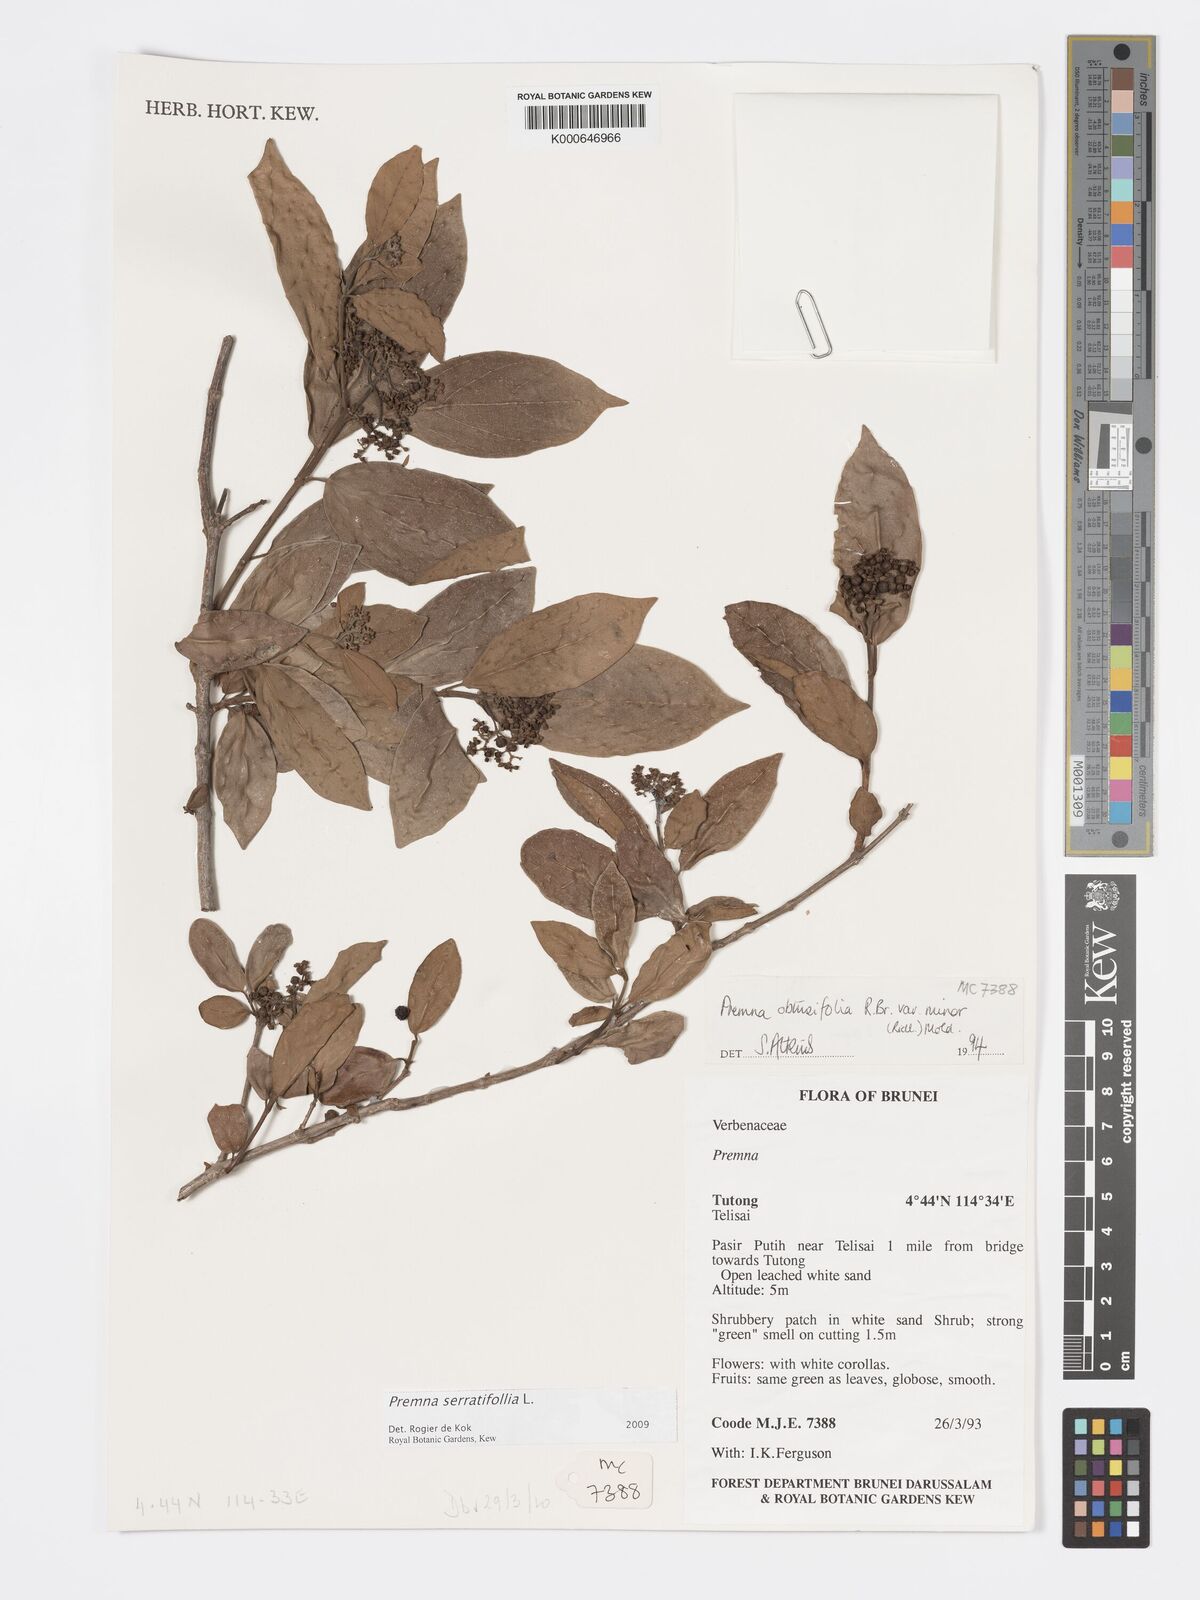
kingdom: Plantae
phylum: Tracheophyta
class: Magnoliopsida
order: Lamiales
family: Lamiaceae
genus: Premna
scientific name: Premna serratifolia
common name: Bastard guelder
